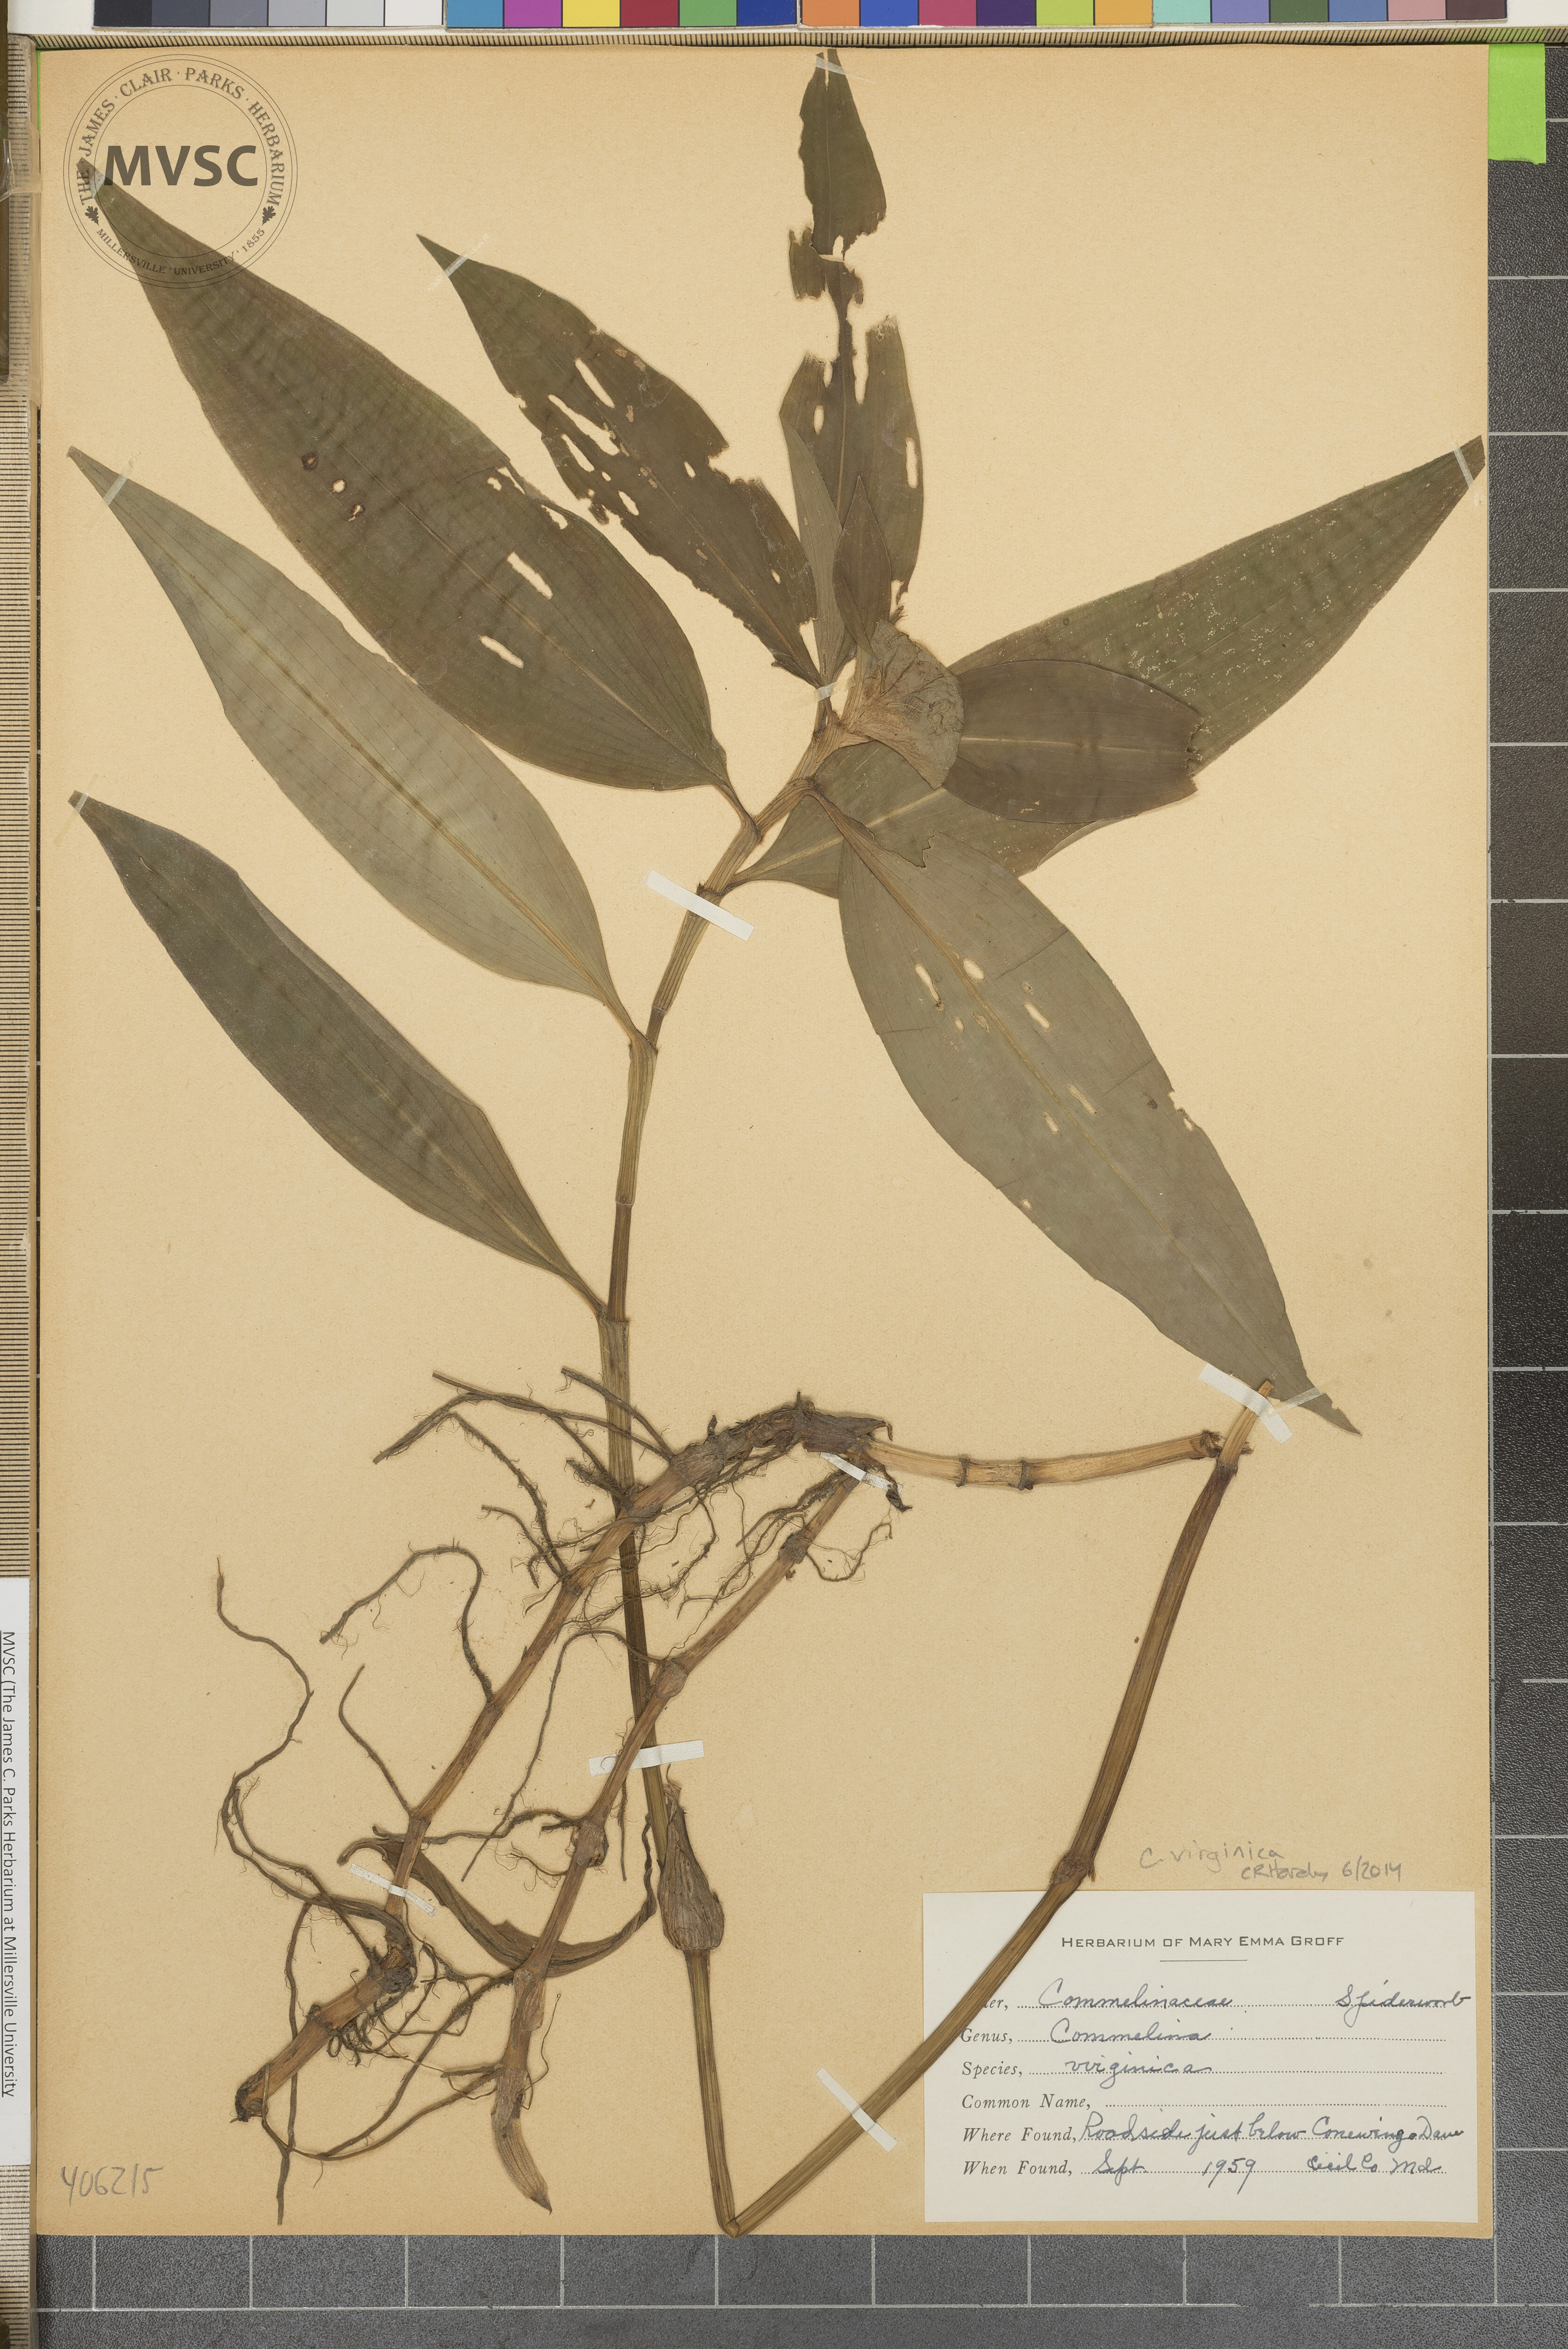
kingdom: Plantae
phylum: Tracheophyta
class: Liliopsida
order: Commelinales
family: Commelinaceae
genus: Commelina
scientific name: Commelina virginica
